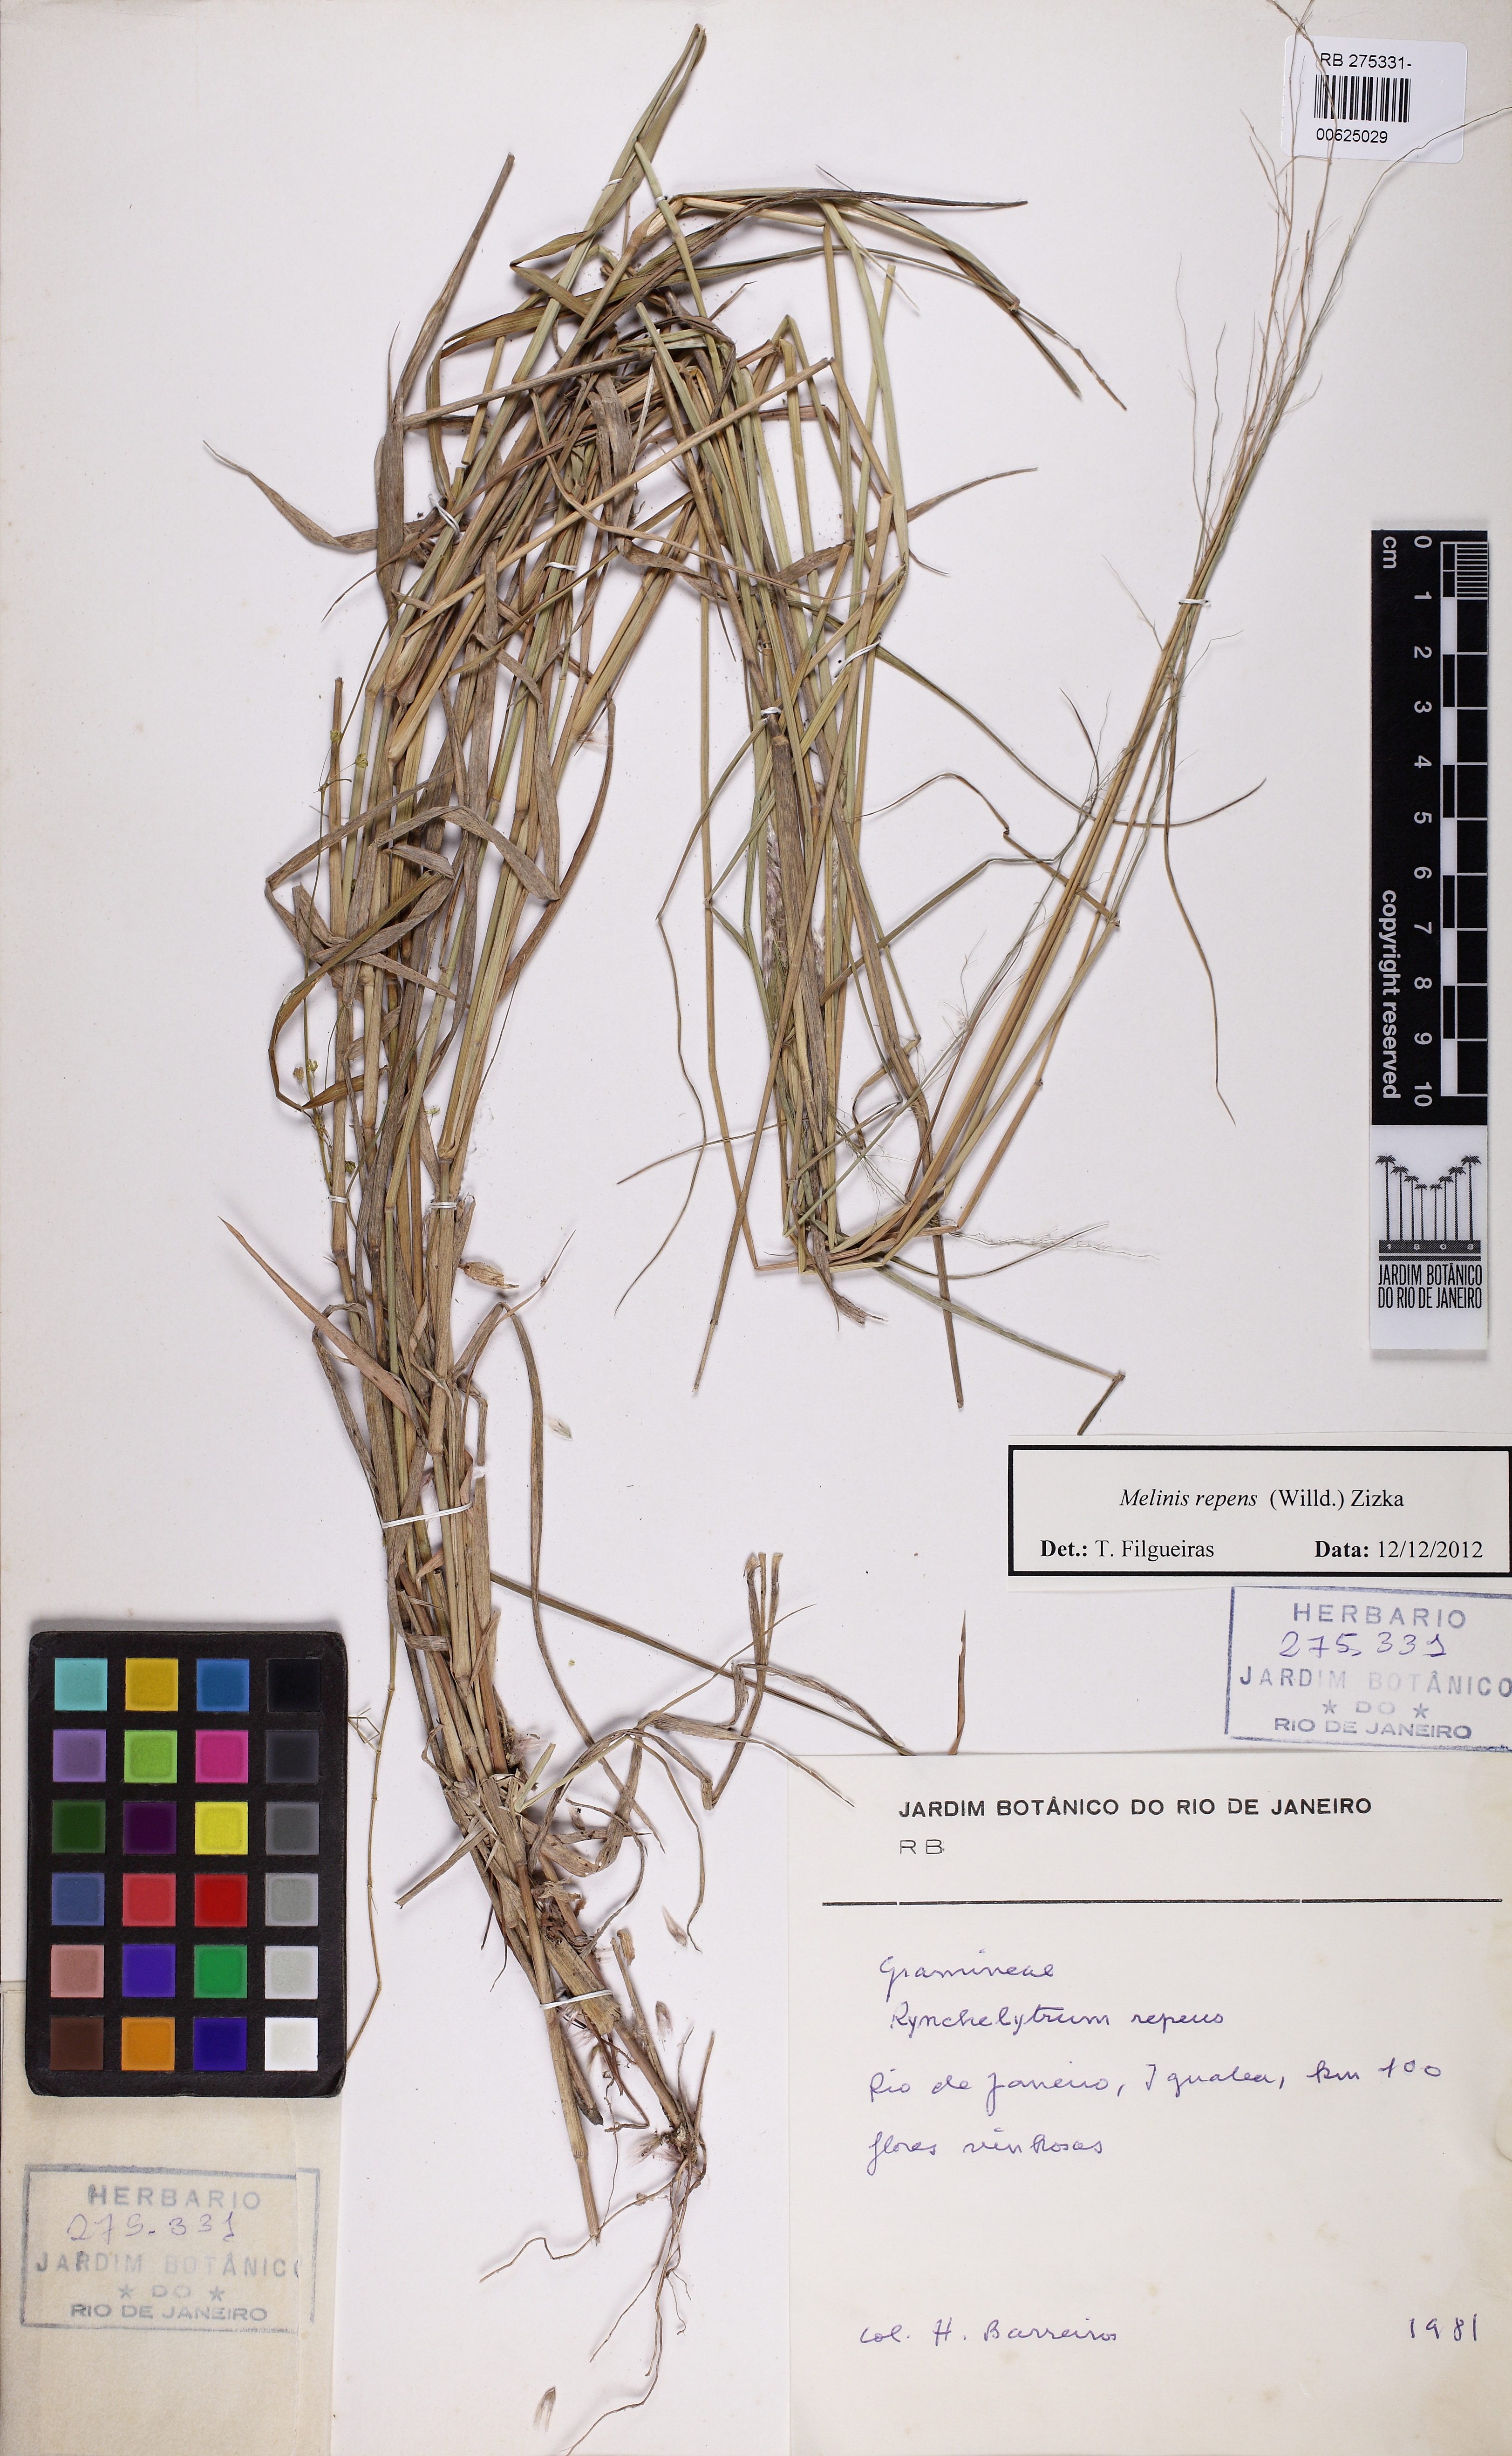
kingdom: Plantae
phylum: Tracheophyta
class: Liliopsida
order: Poales
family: Poaceae
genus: Melinis
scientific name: Melinis repens
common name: Rose natal grass
